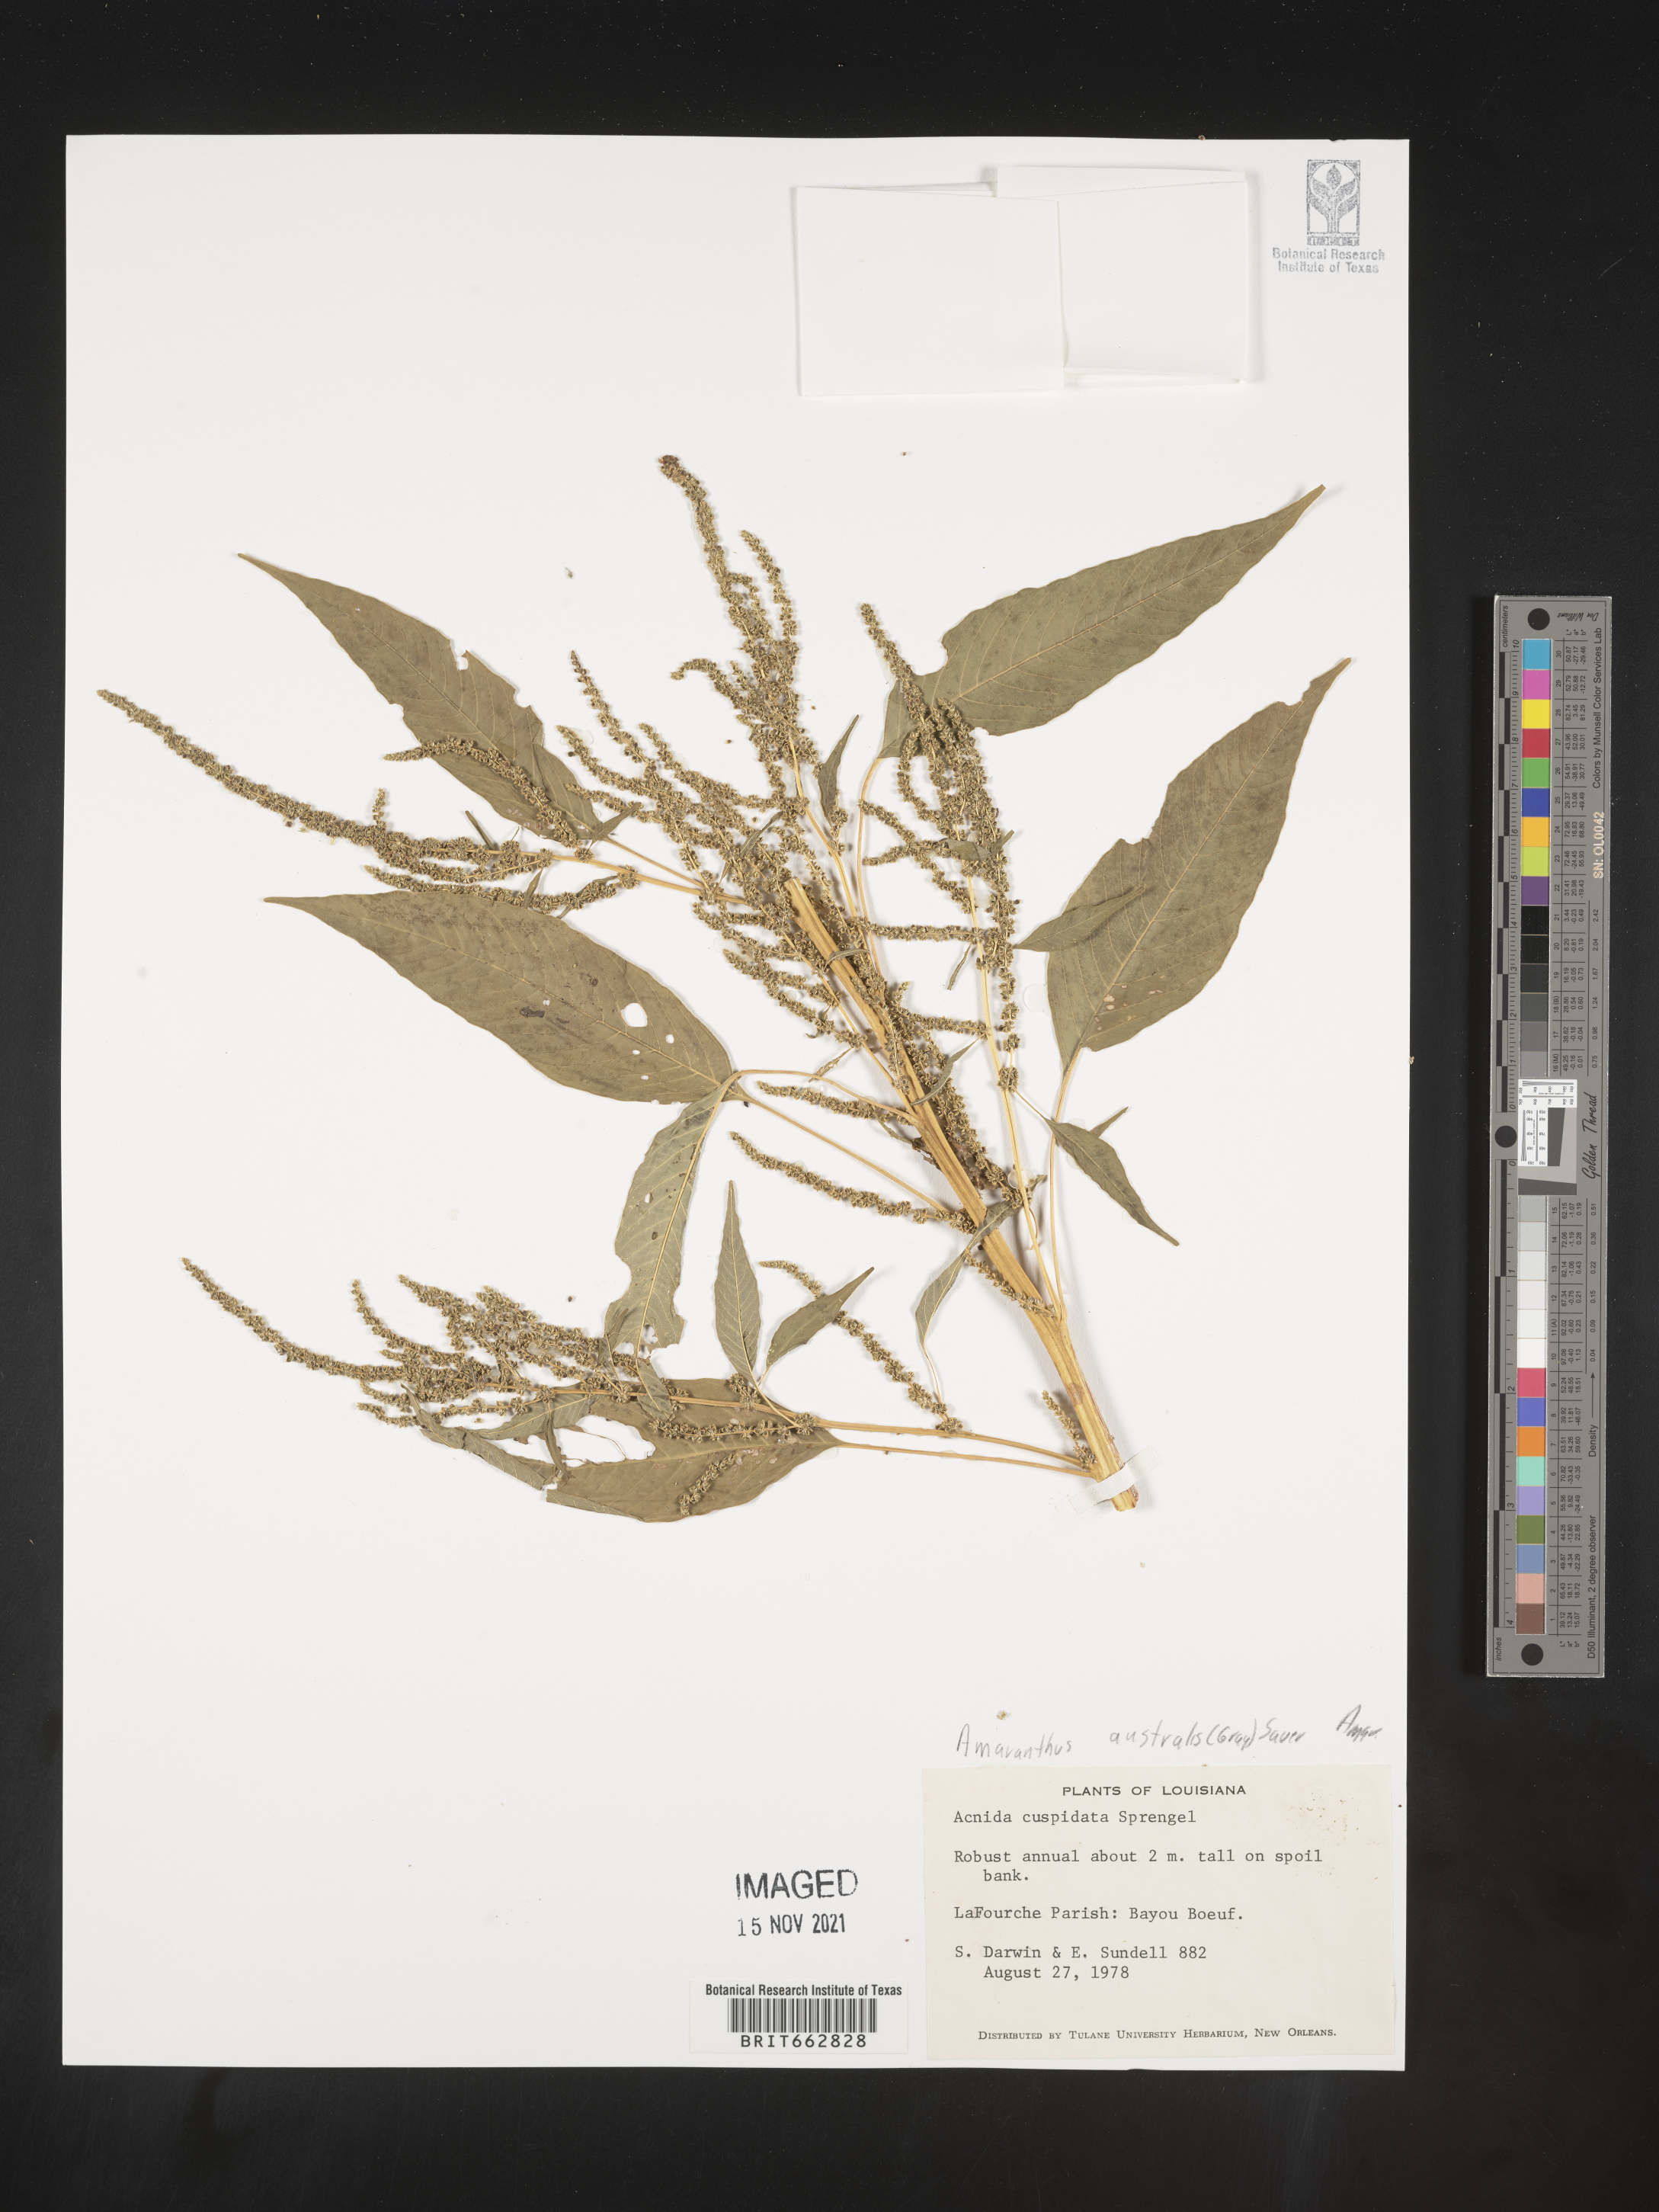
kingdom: Plantae
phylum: Tracheophyta
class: Magnoliopsida
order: Caryophyllales
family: Amaranthaceae
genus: Amaranthus
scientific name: Amaranthus australis
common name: Southern amaranth
